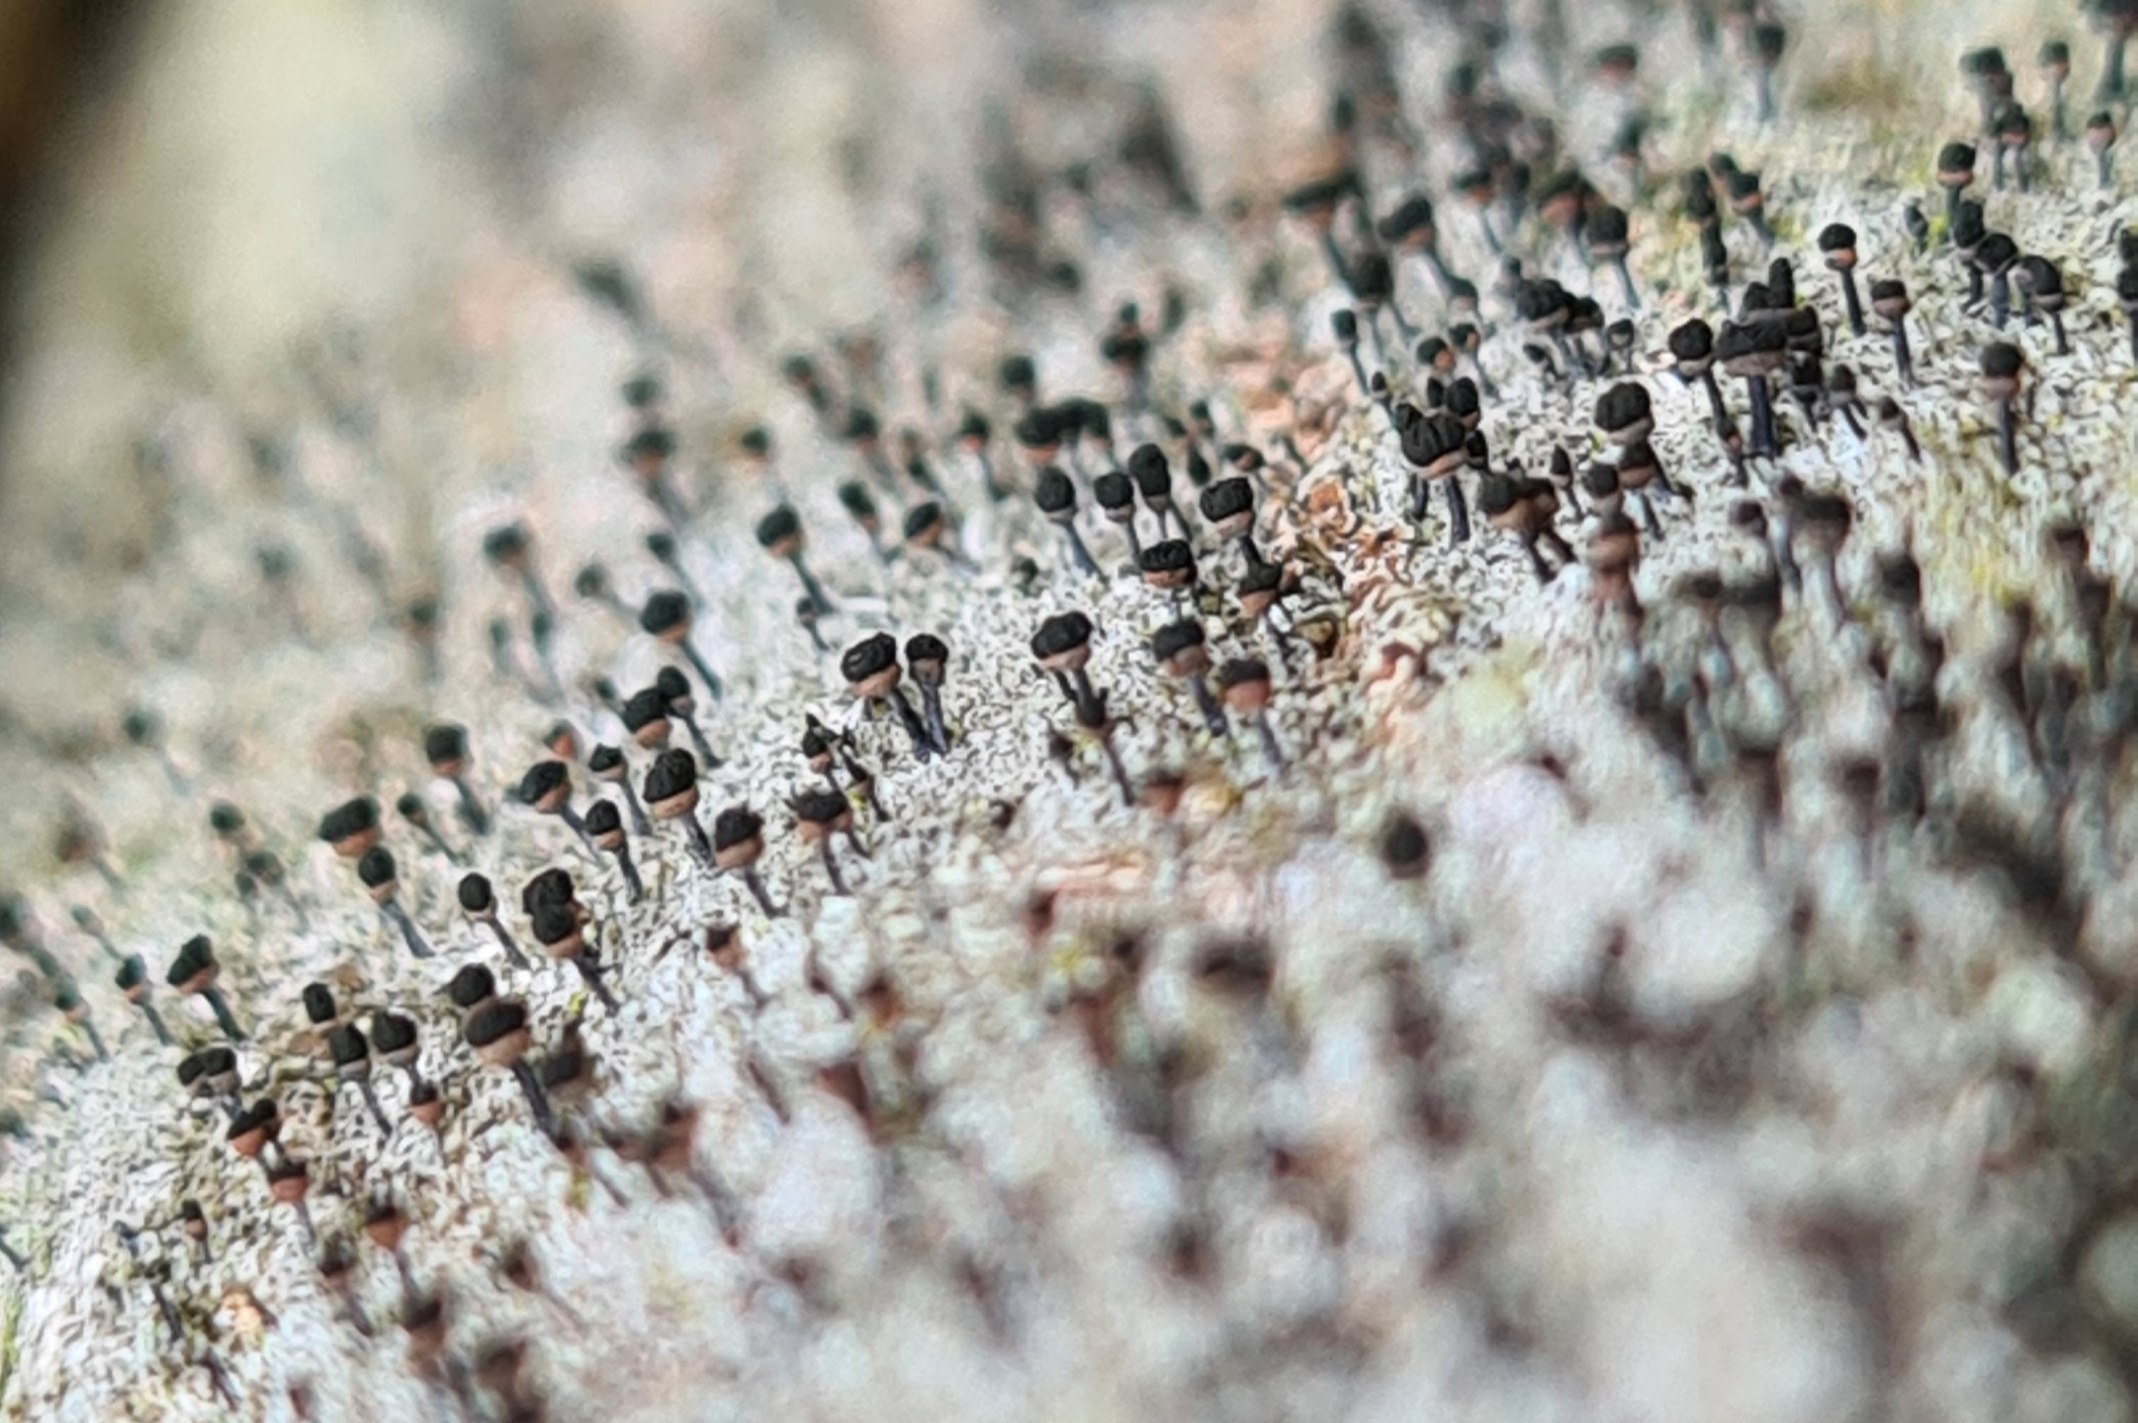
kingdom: Fungi
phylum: Ascomycota
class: Lecanoromycetes
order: Caliciales
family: Caliciaceae
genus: Calicium
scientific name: Calicium salicinum
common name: Persoons nålelav
